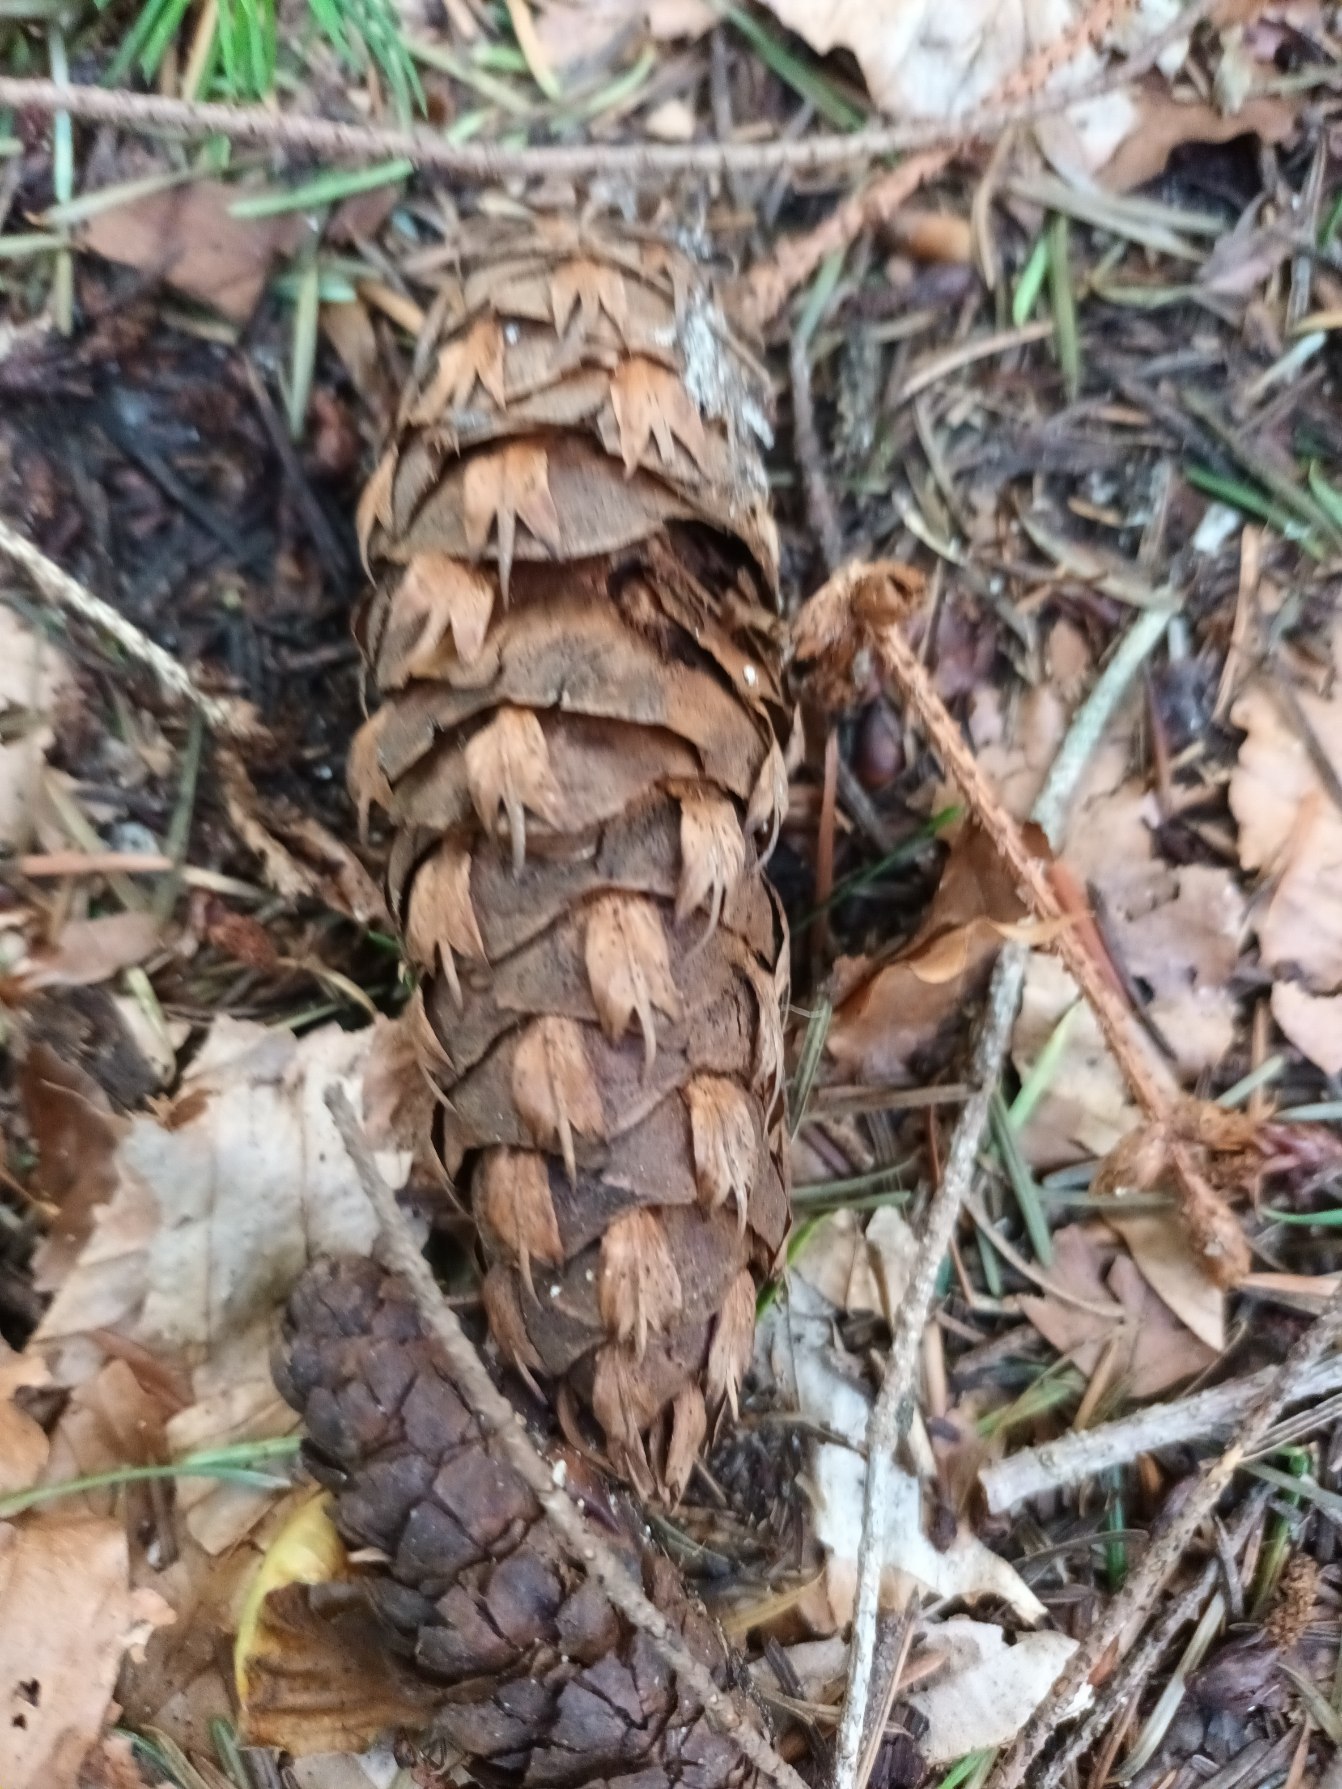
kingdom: Plantae
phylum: Tracheophyta
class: Pinopsida
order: Pinales
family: Pinaceae
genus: Pseudotsuga
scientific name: Pseudotsuga menziesii
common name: Douglasgran
